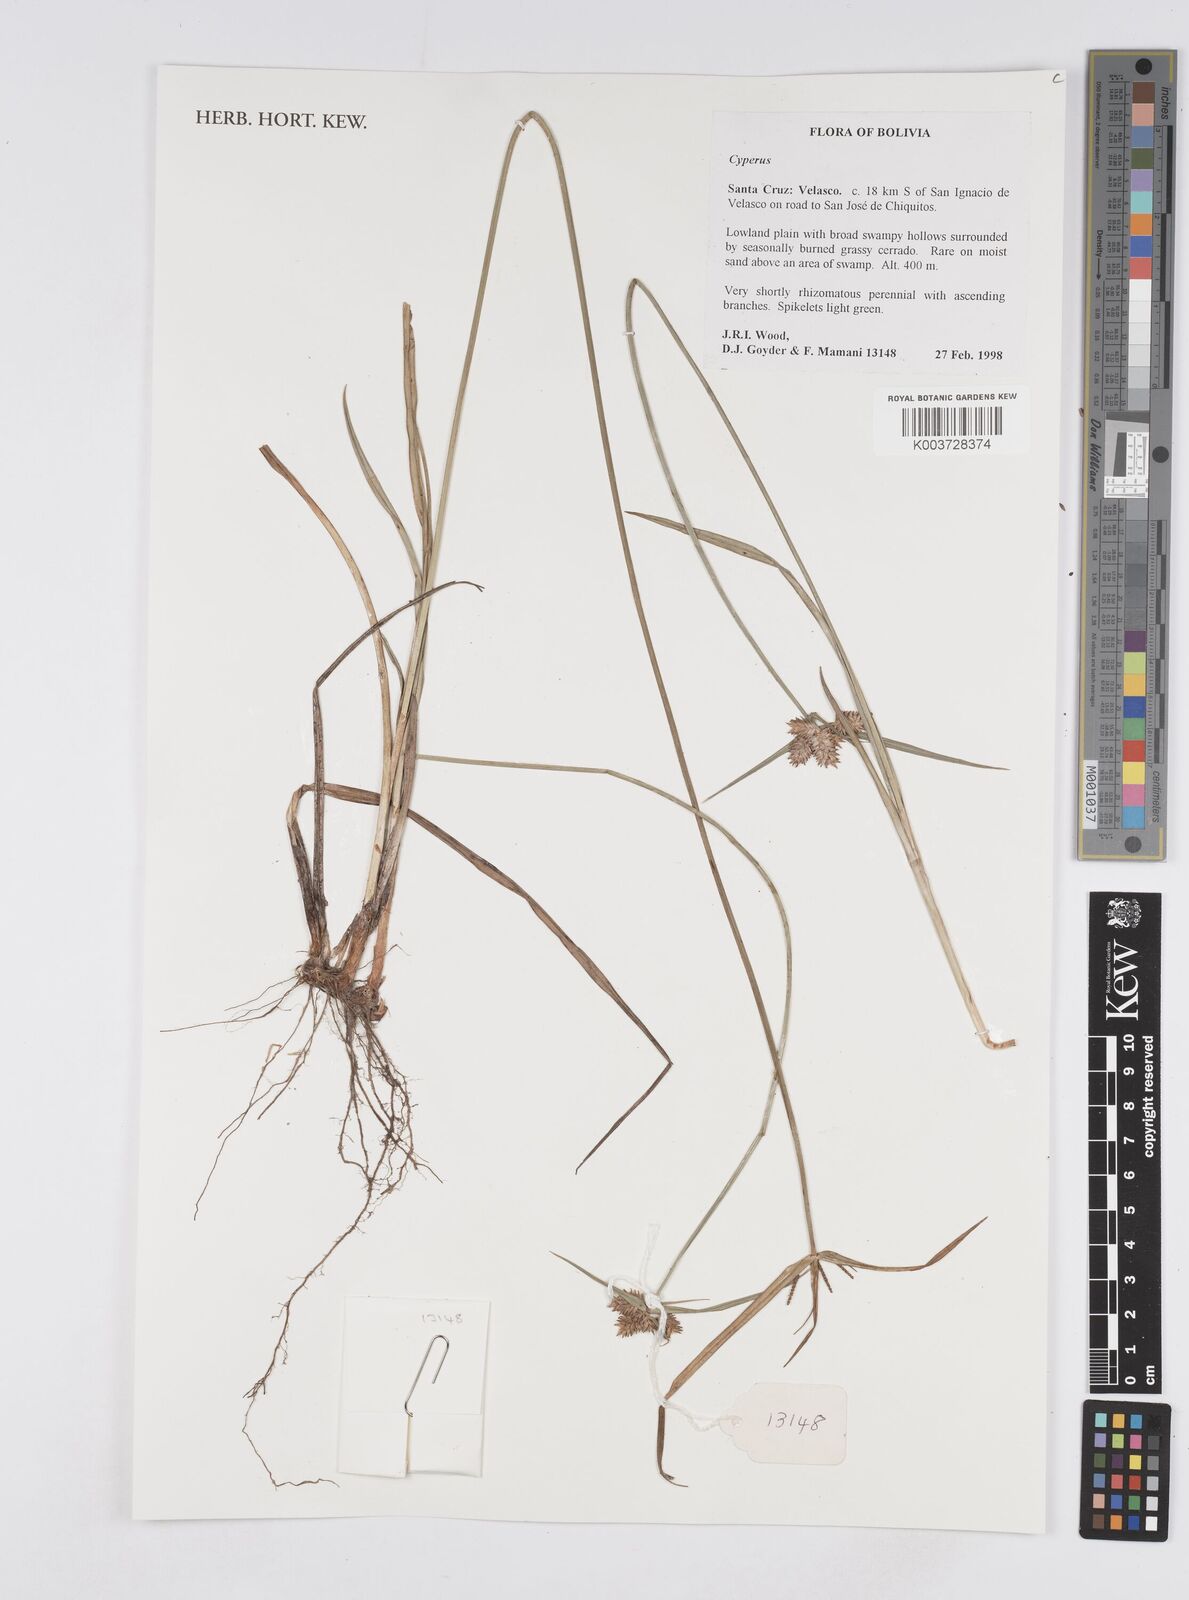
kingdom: Plantae
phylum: Tracheophyta
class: Liliopsida
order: Poales
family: Cyperaceae
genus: Cyperus
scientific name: Cyperus
